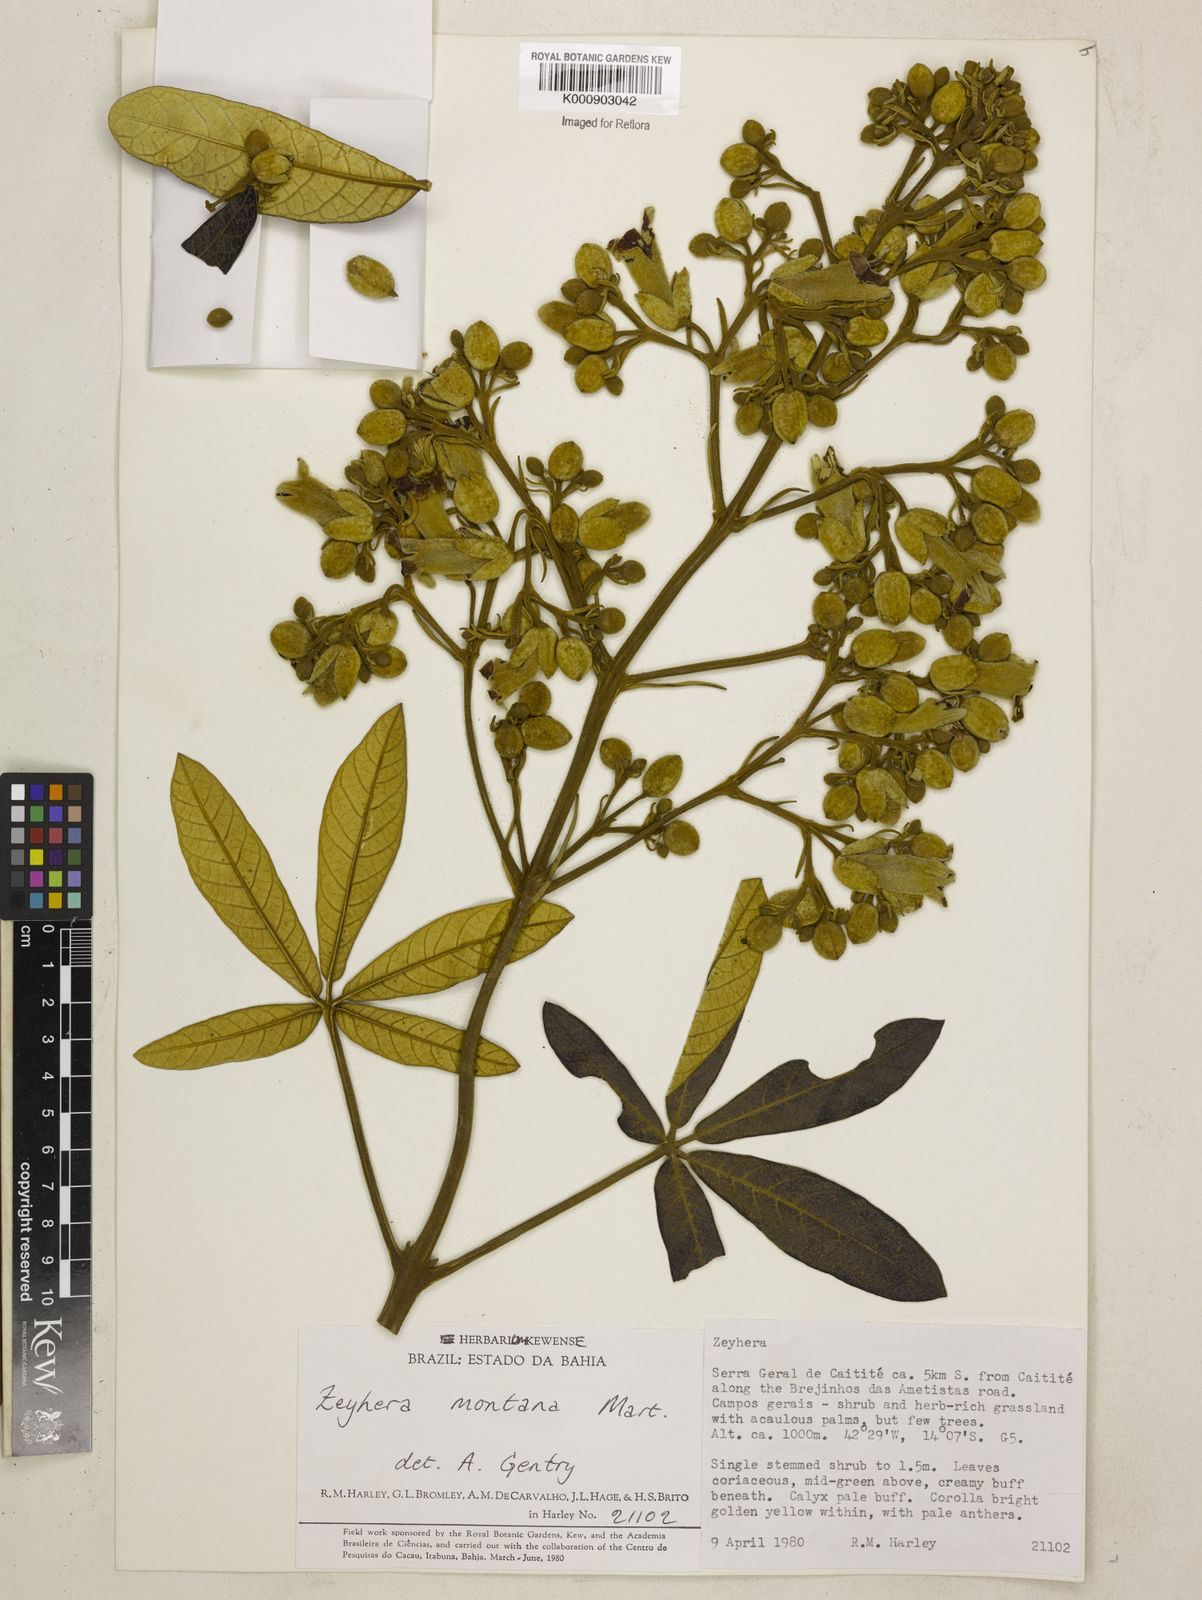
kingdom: Plantae
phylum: Tracheophyta
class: Magnoliopsida
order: Lamiales
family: Bignoniaceae
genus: Zeyheria
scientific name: Zeyheria
